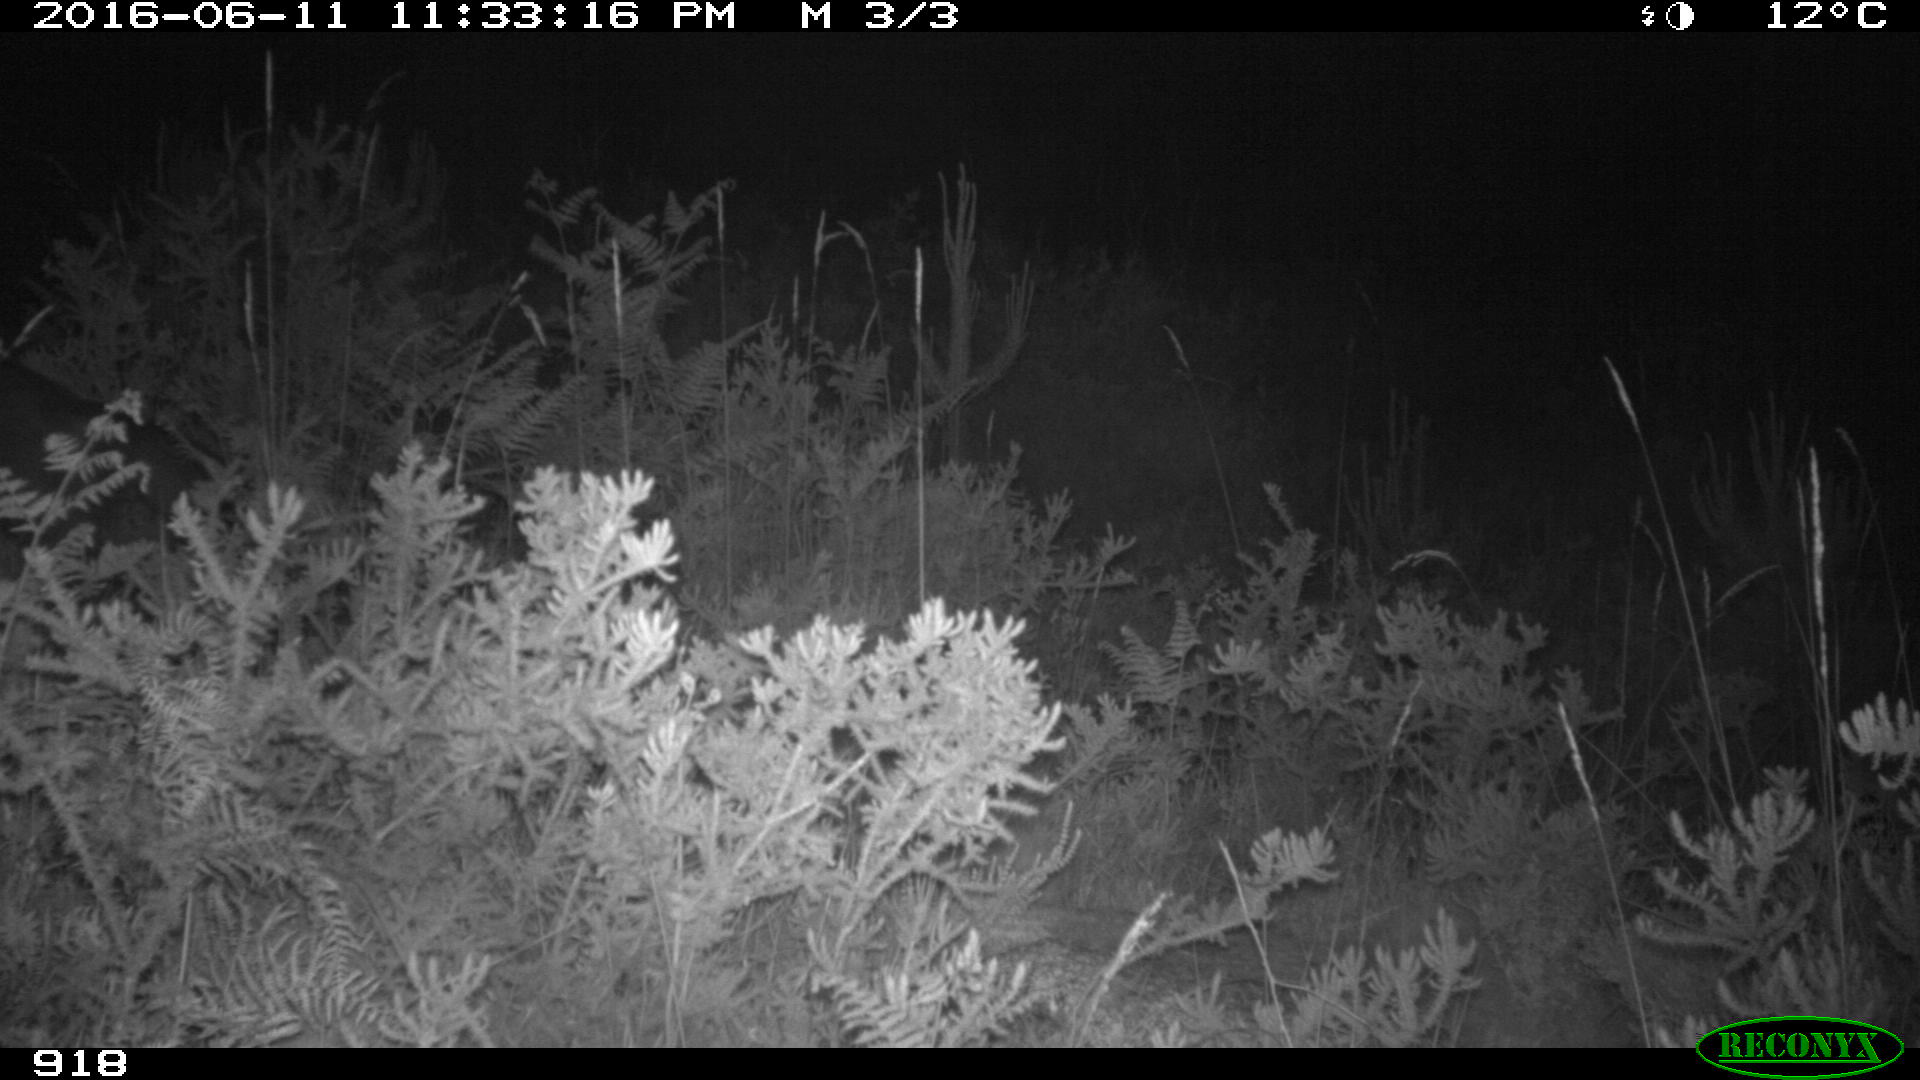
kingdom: Animalia
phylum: Chordata
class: Mammalia
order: Carnivora
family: Canidae
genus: Canis
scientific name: Canis lupus
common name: Gray wolf
